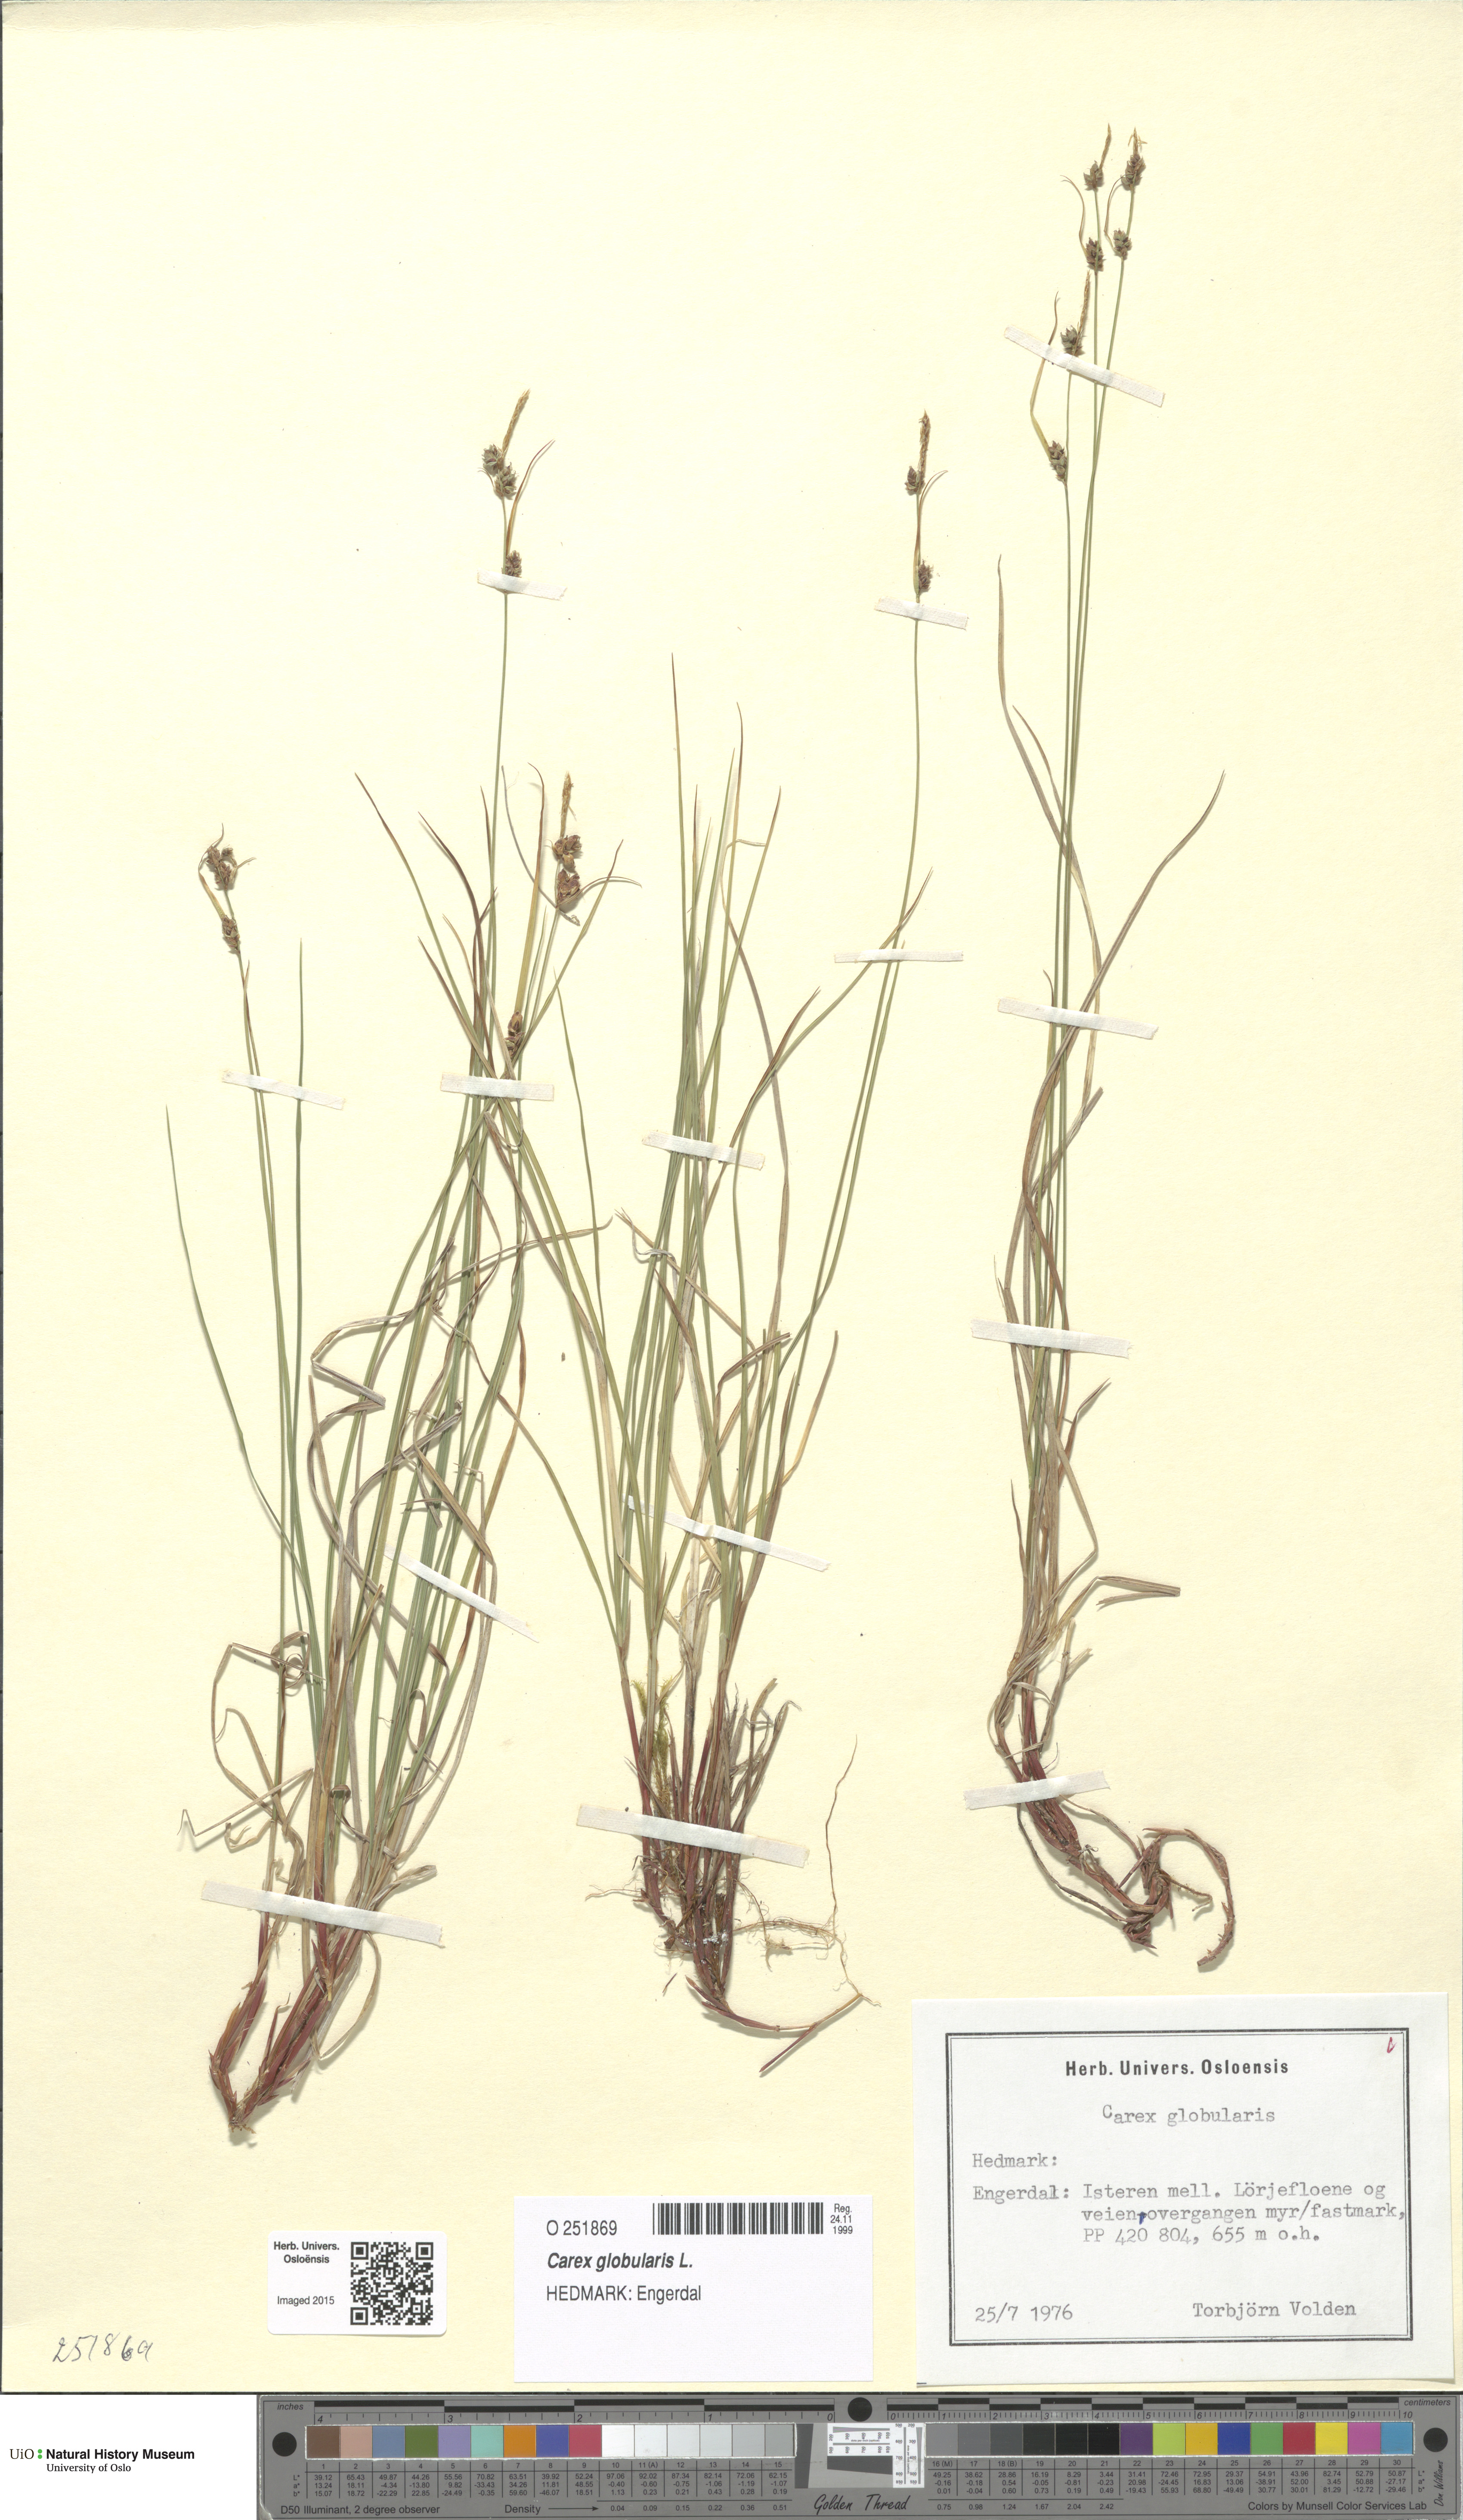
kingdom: Plantae
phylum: Tracheophyta
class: Liliopsida
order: Poales
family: Cyperaceae
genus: Carex
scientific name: Carex globularis
